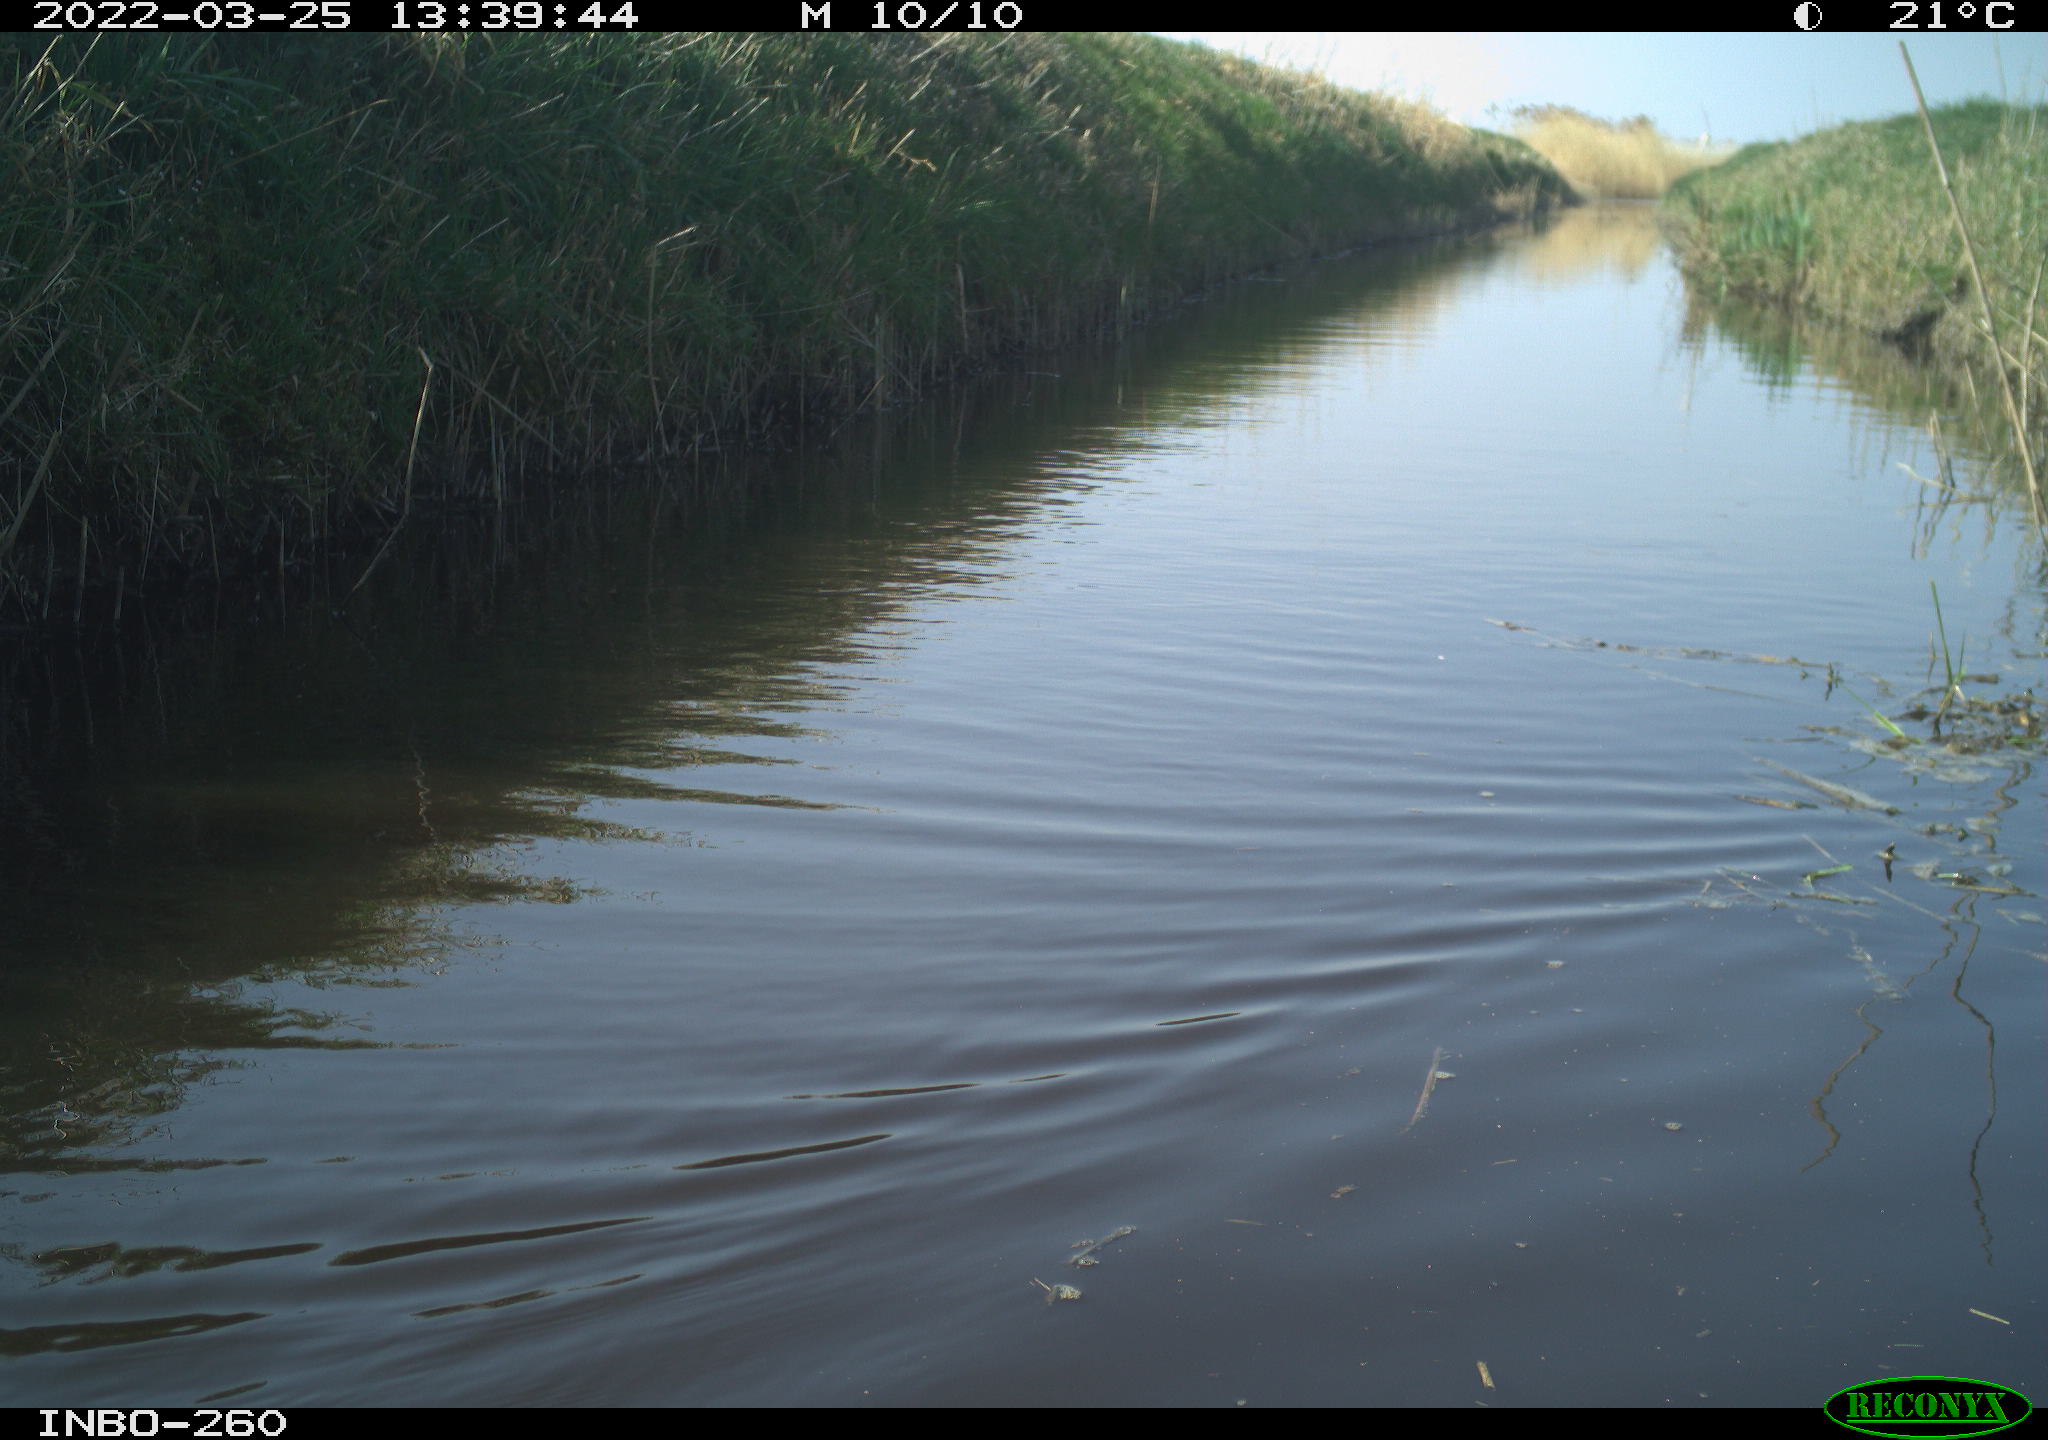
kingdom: Animalia
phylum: Chordata
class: Aves
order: Gruiformes
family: Rallidae
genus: Fulica
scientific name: Fulica atra
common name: Eurasian coot
